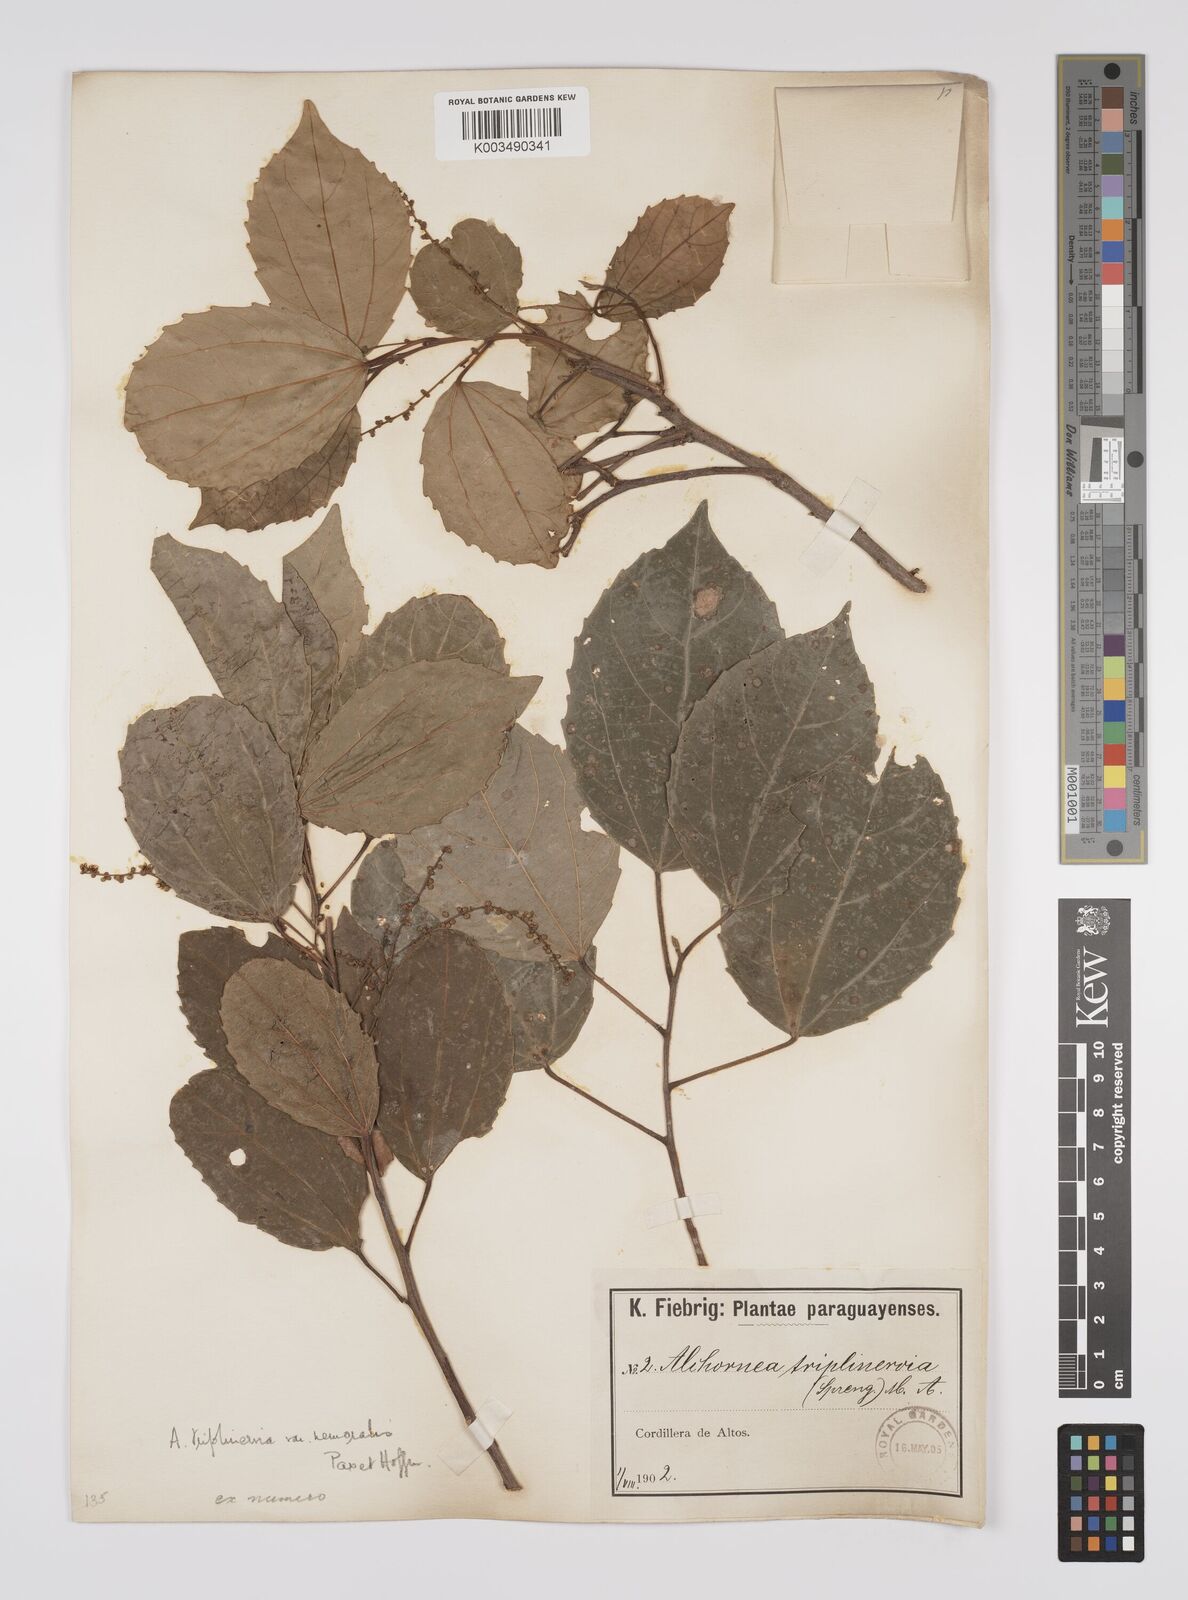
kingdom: Plantae
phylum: Tracheophyta
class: Magnoliopsida
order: Malpighiales
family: Euphorbiaceae
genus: Alchornea
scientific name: Alchornea triplinervia
